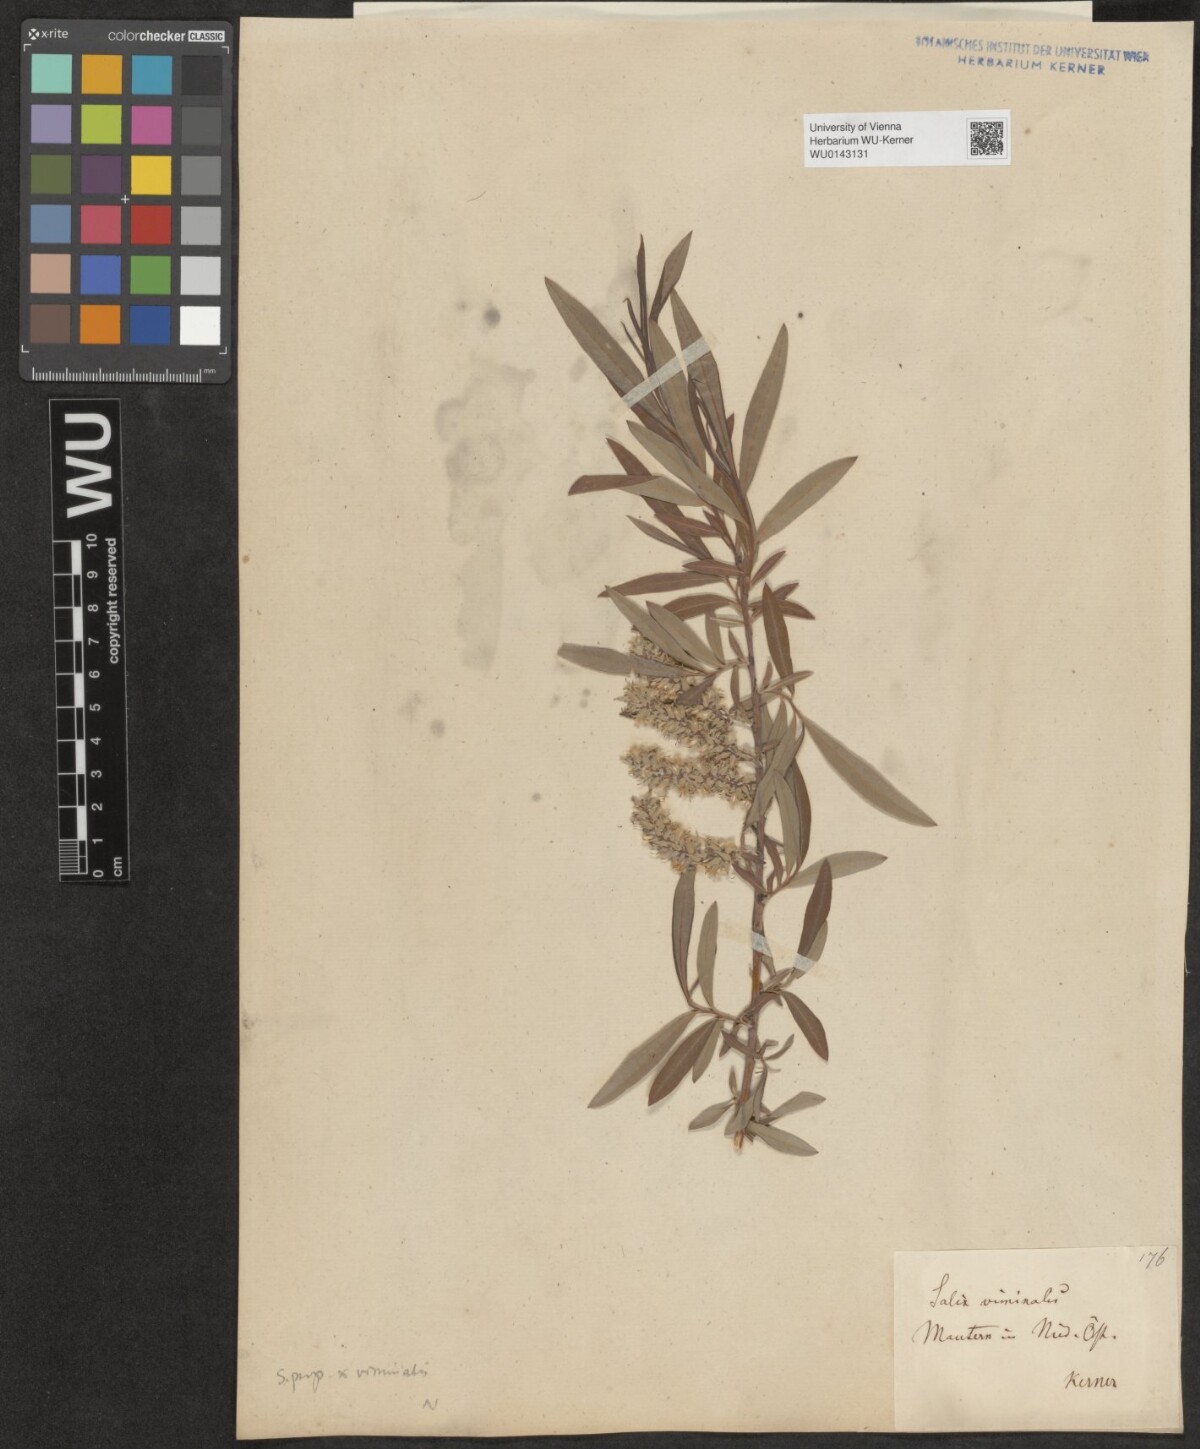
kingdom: Plantae
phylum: Tracheophyta
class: Magnoliopsida
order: Malpighiales
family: Salicaceae
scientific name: Salicaceae
